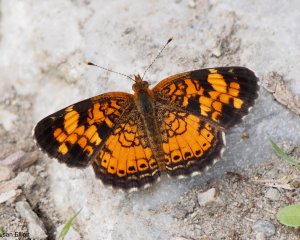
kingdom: Animalia
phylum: Arthropoda
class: Insecta
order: Lepidoptera
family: Nymphalidae
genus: Phyciodes
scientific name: Phyciodes
